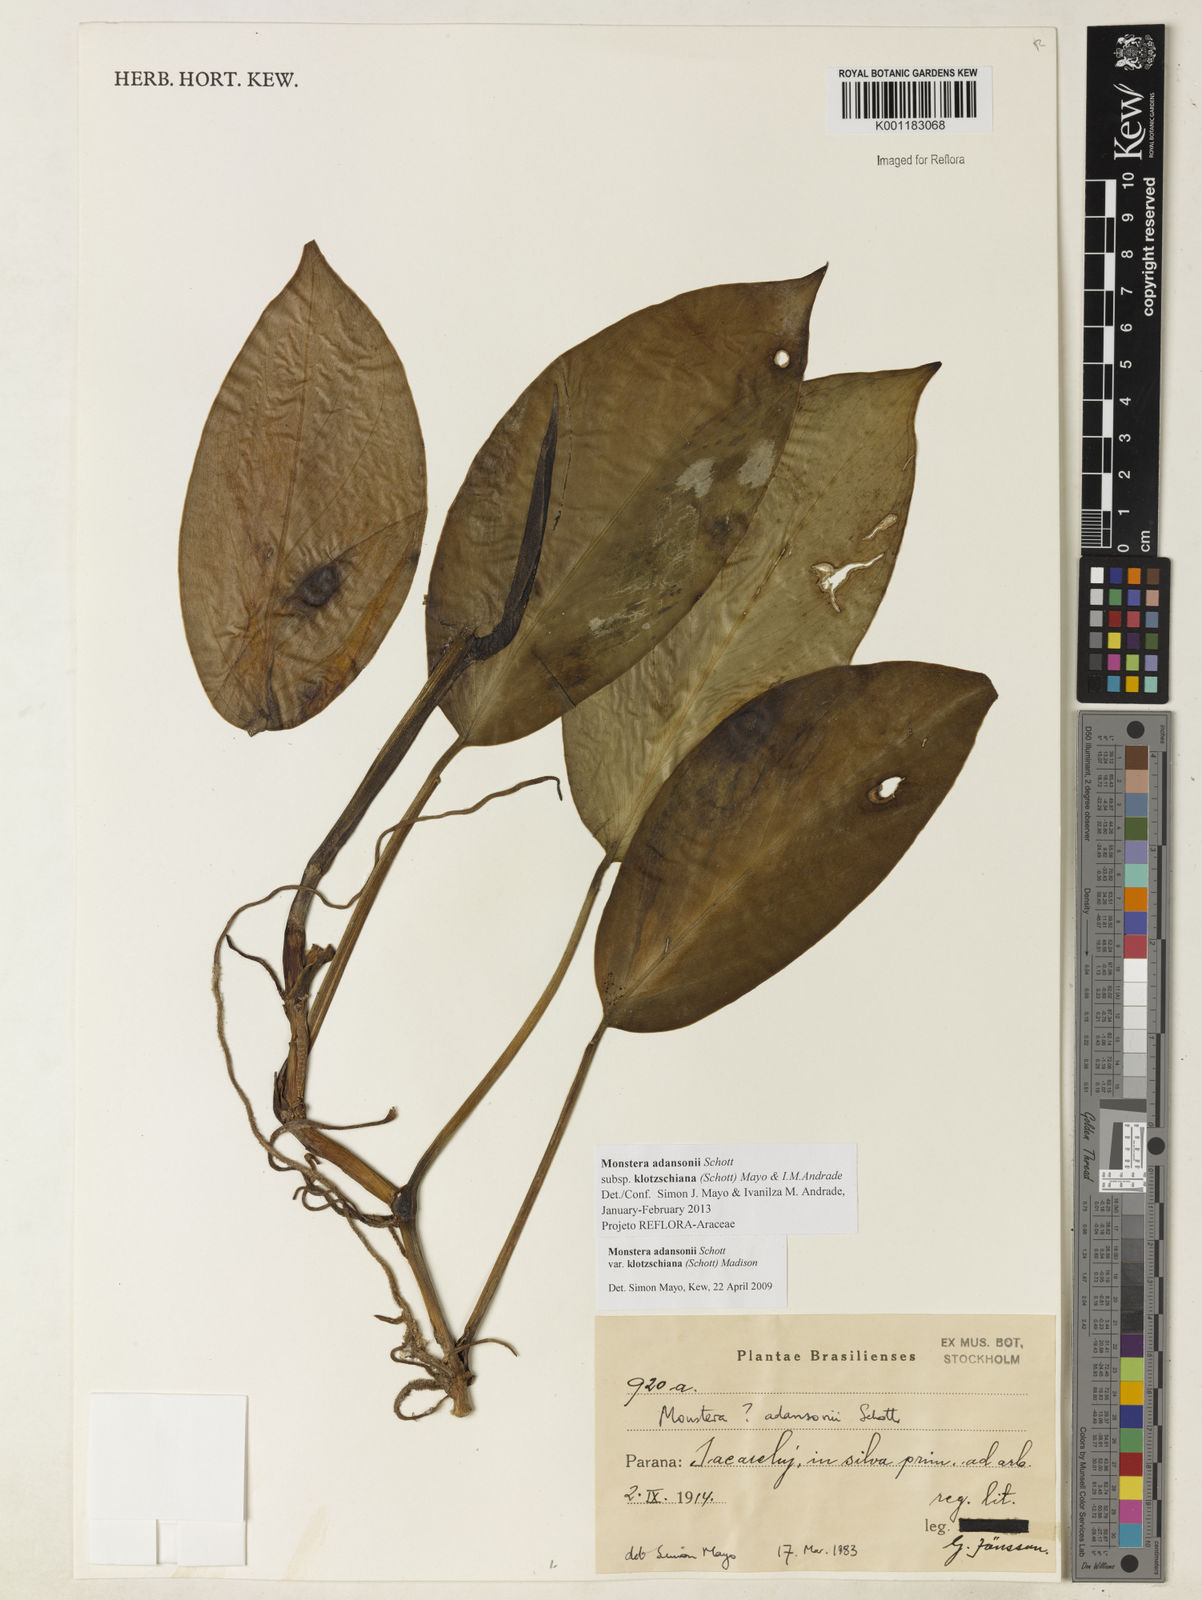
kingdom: Plantae
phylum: Tracheophyta
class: Liliopsida
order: Alismatales
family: Araceae
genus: Monstera
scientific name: Monstera adansonii
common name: Tarovine
